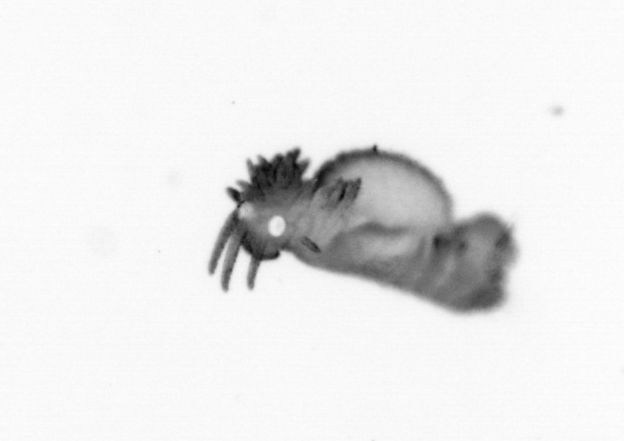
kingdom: Animalia
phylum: Annelida
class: Polychaeta
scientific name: Polychaeta
